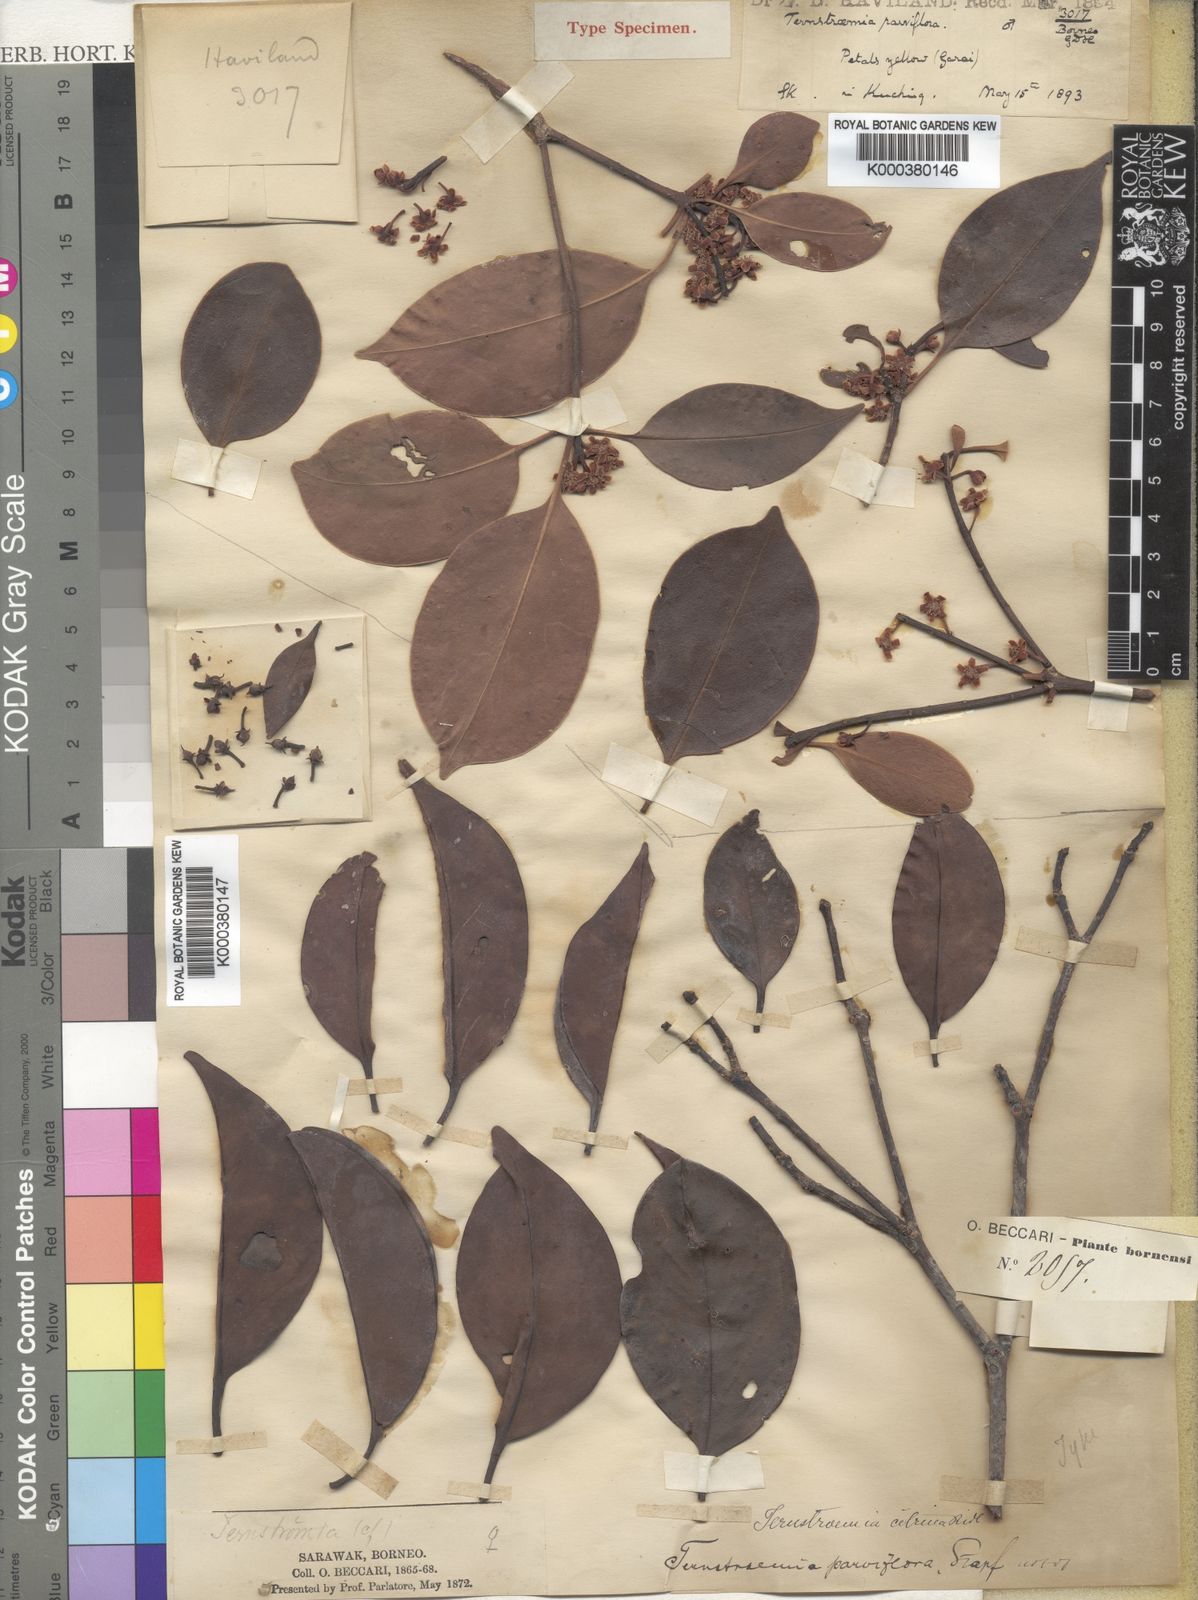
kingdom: Plantae
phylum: Tracheophyta
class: Magnoliopsida
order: Ericales
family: Pentaphylacaceae
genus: Ternstroemia
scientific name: Ternstroemia citrina
